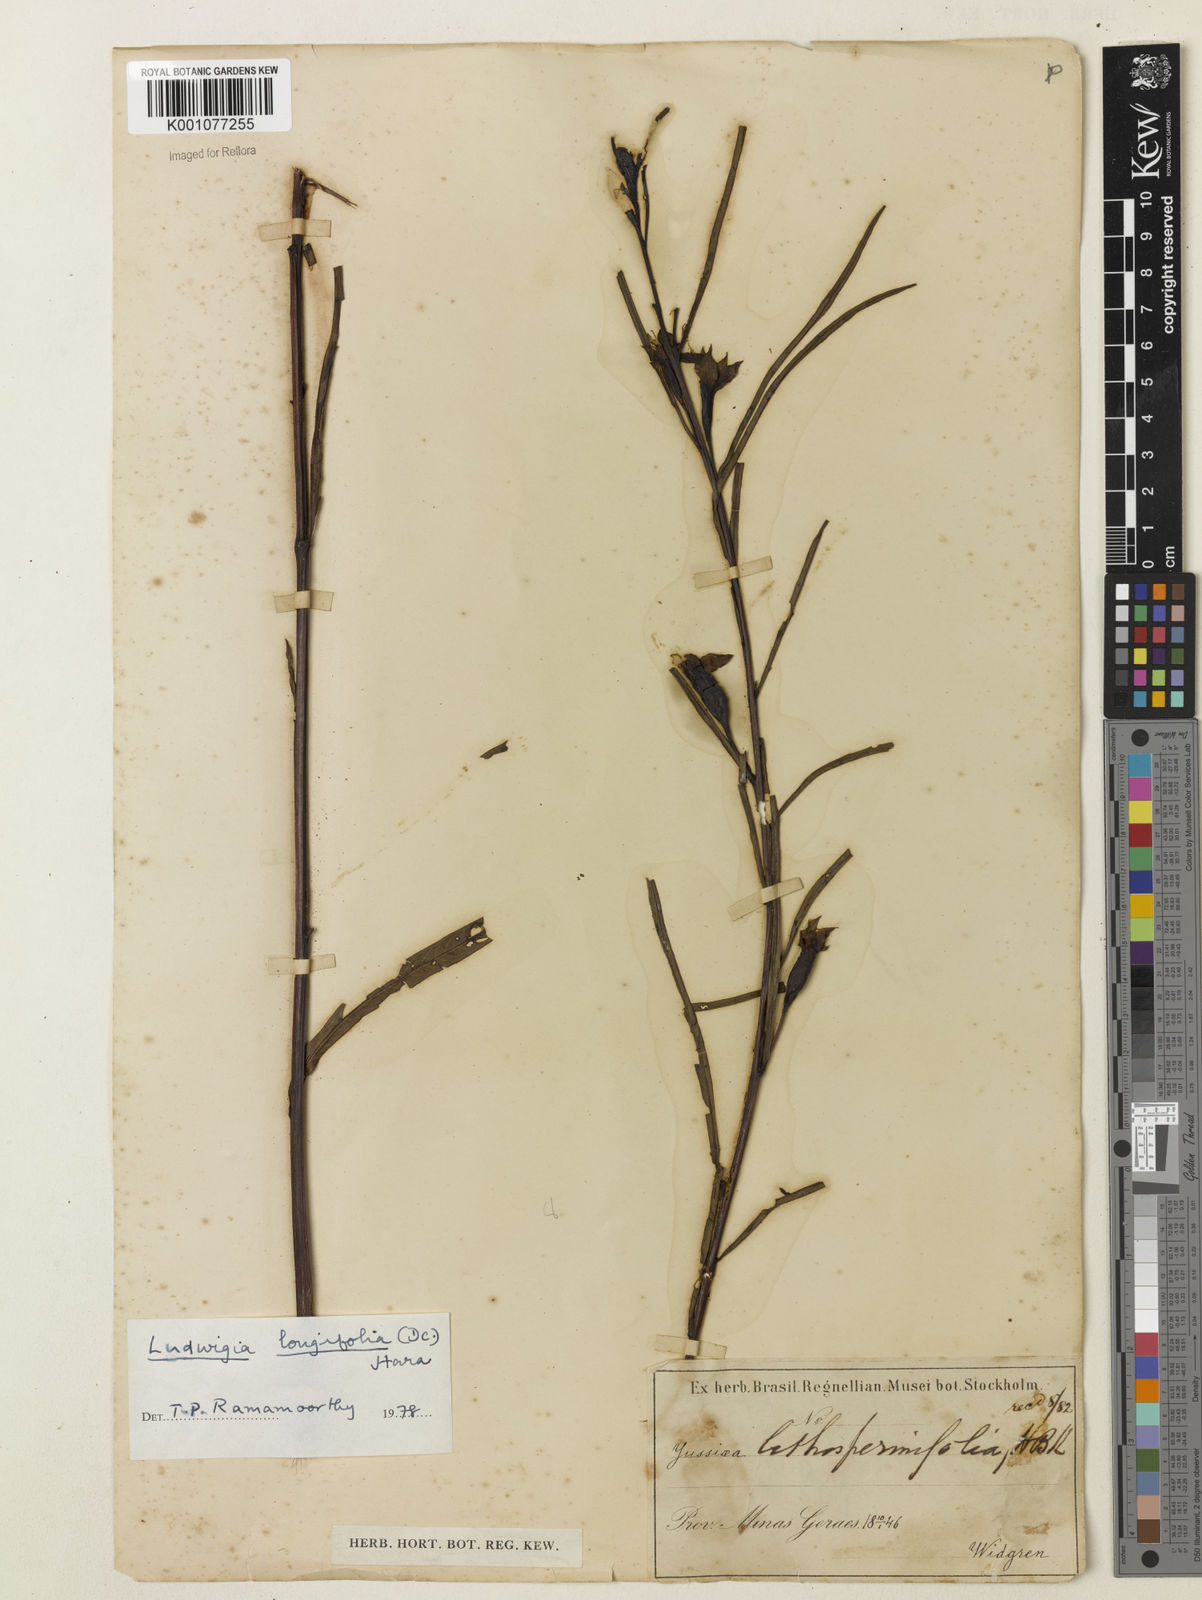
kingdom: Plantae
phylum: Tracheophyta
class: Magnoliopsida
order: Myrtales
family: Onagraceae
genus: Ludwigia
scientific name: Ludwigia longifolia
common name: Longleaf primrose-willow
